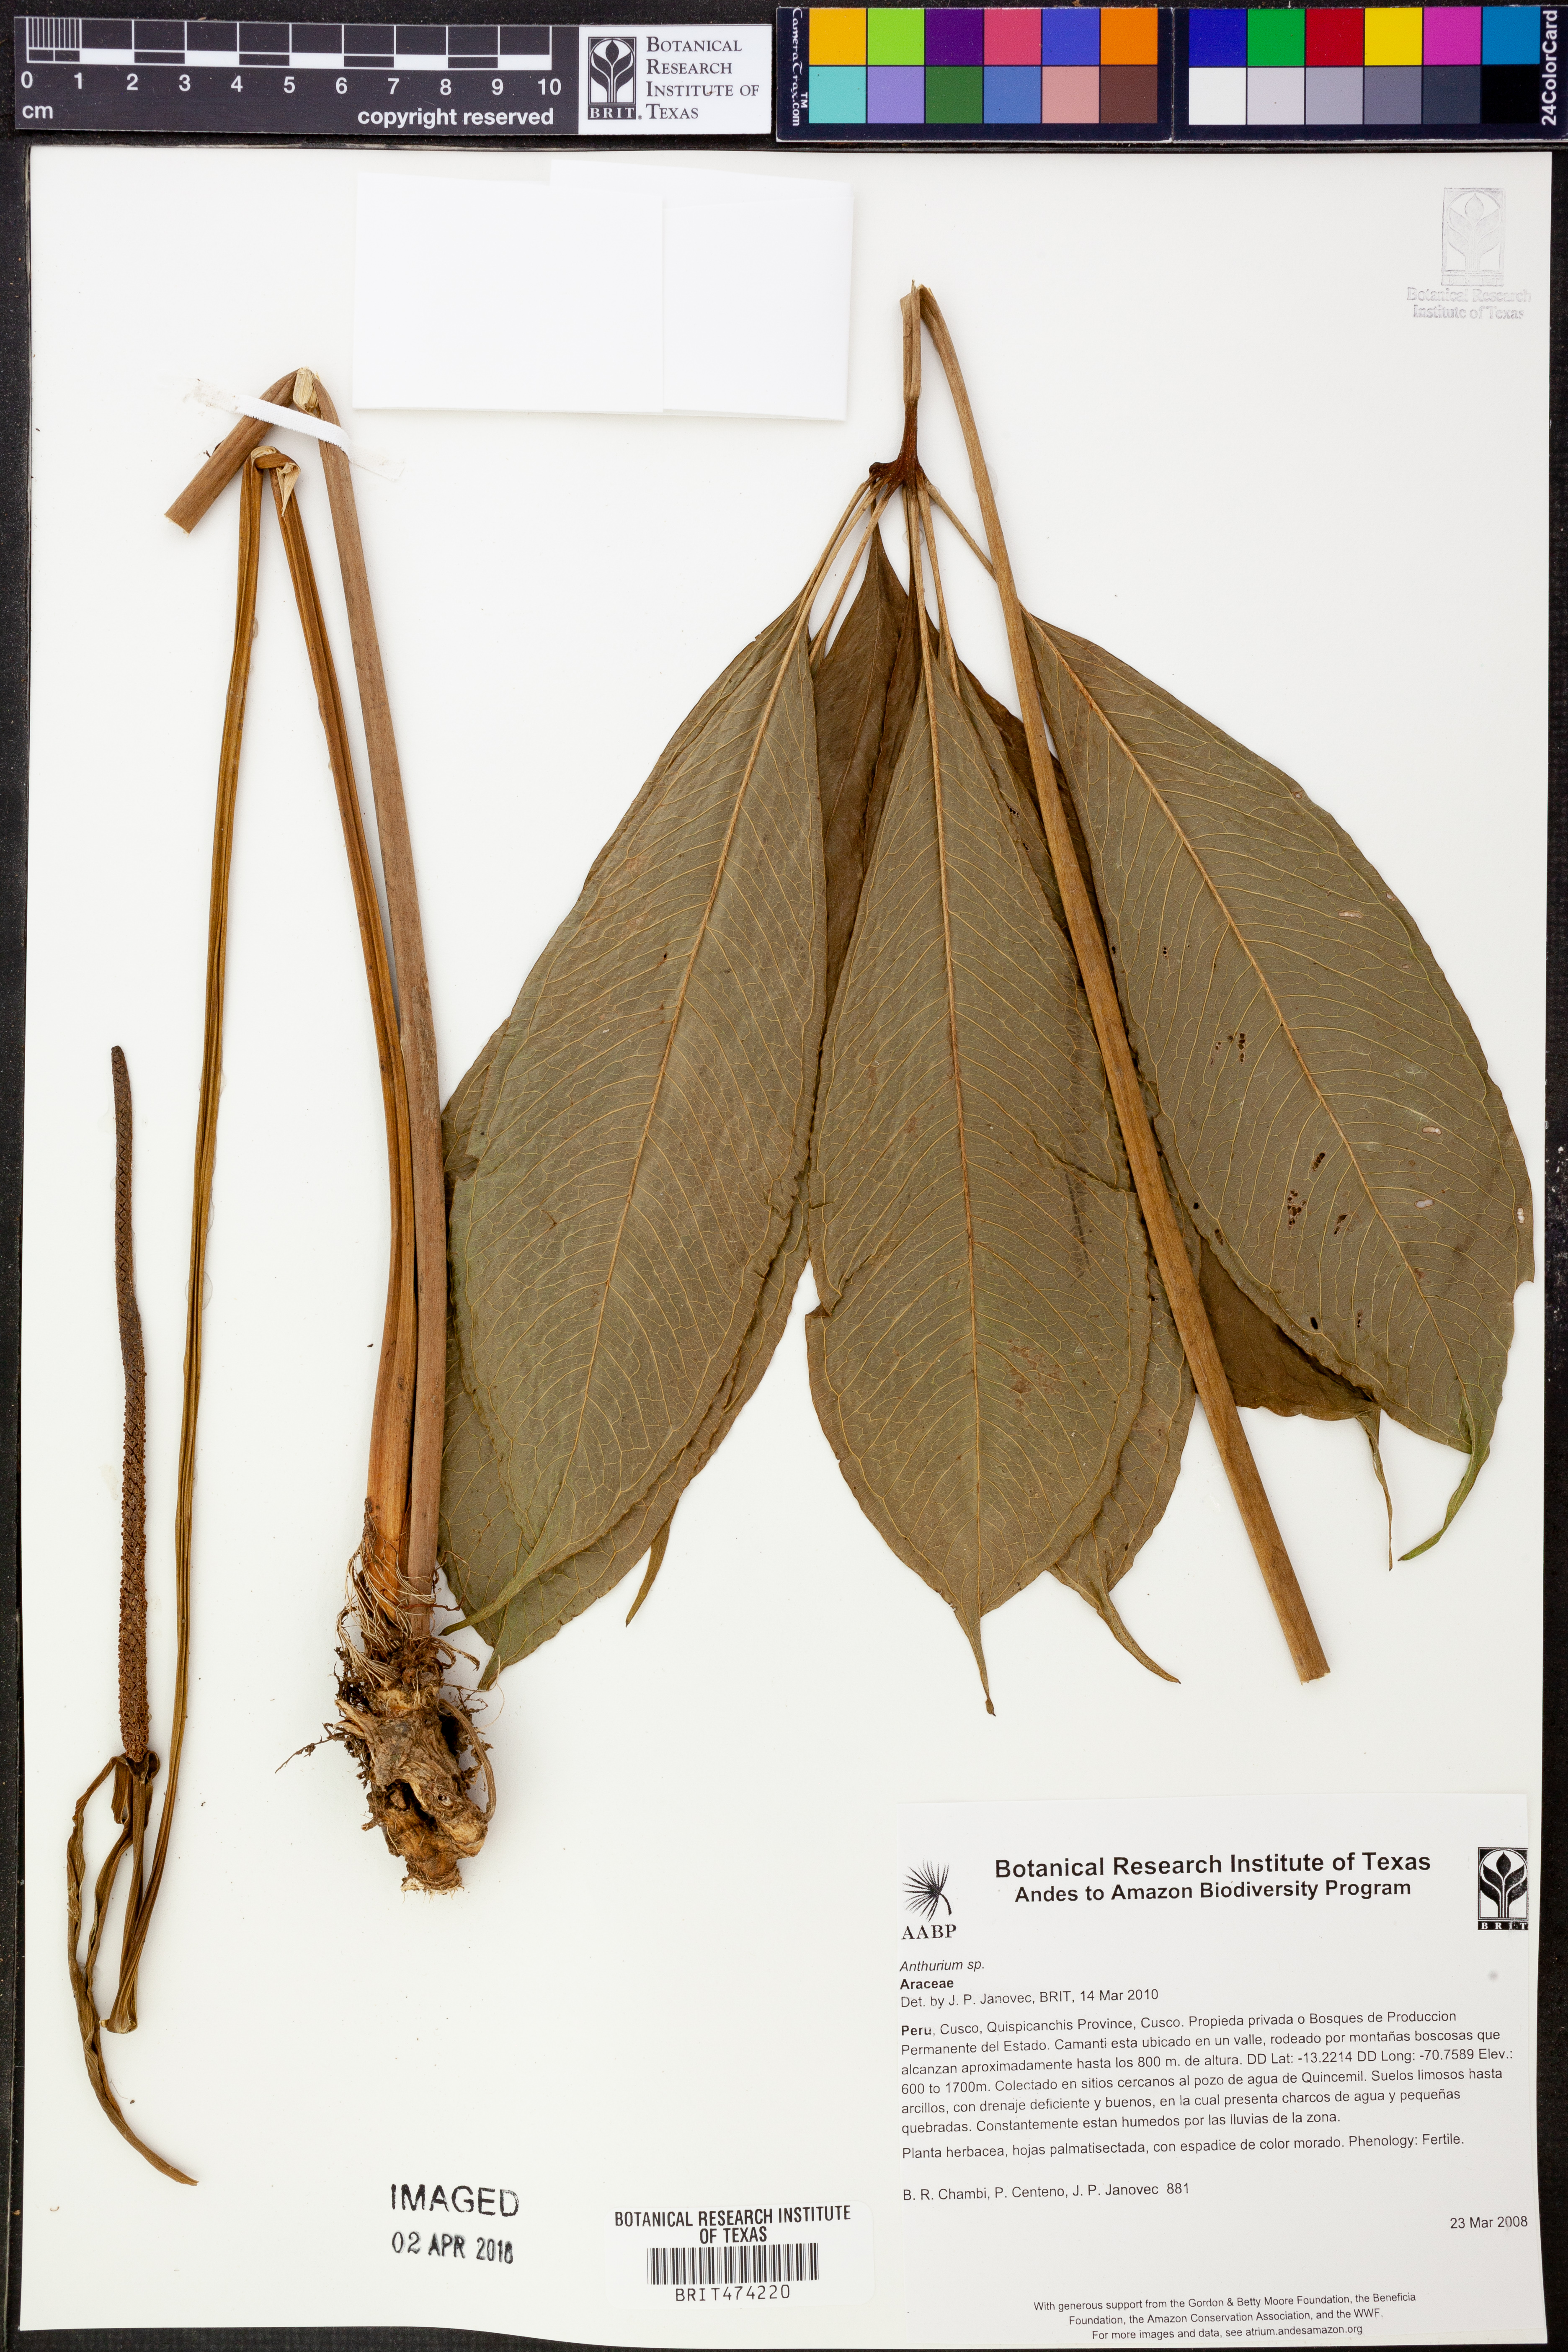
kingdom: Plantae
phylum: Tracheophyta
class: Liliopsida
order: Alismatales
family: Araceae
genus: Anthurium
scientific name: Anthurium croatii
